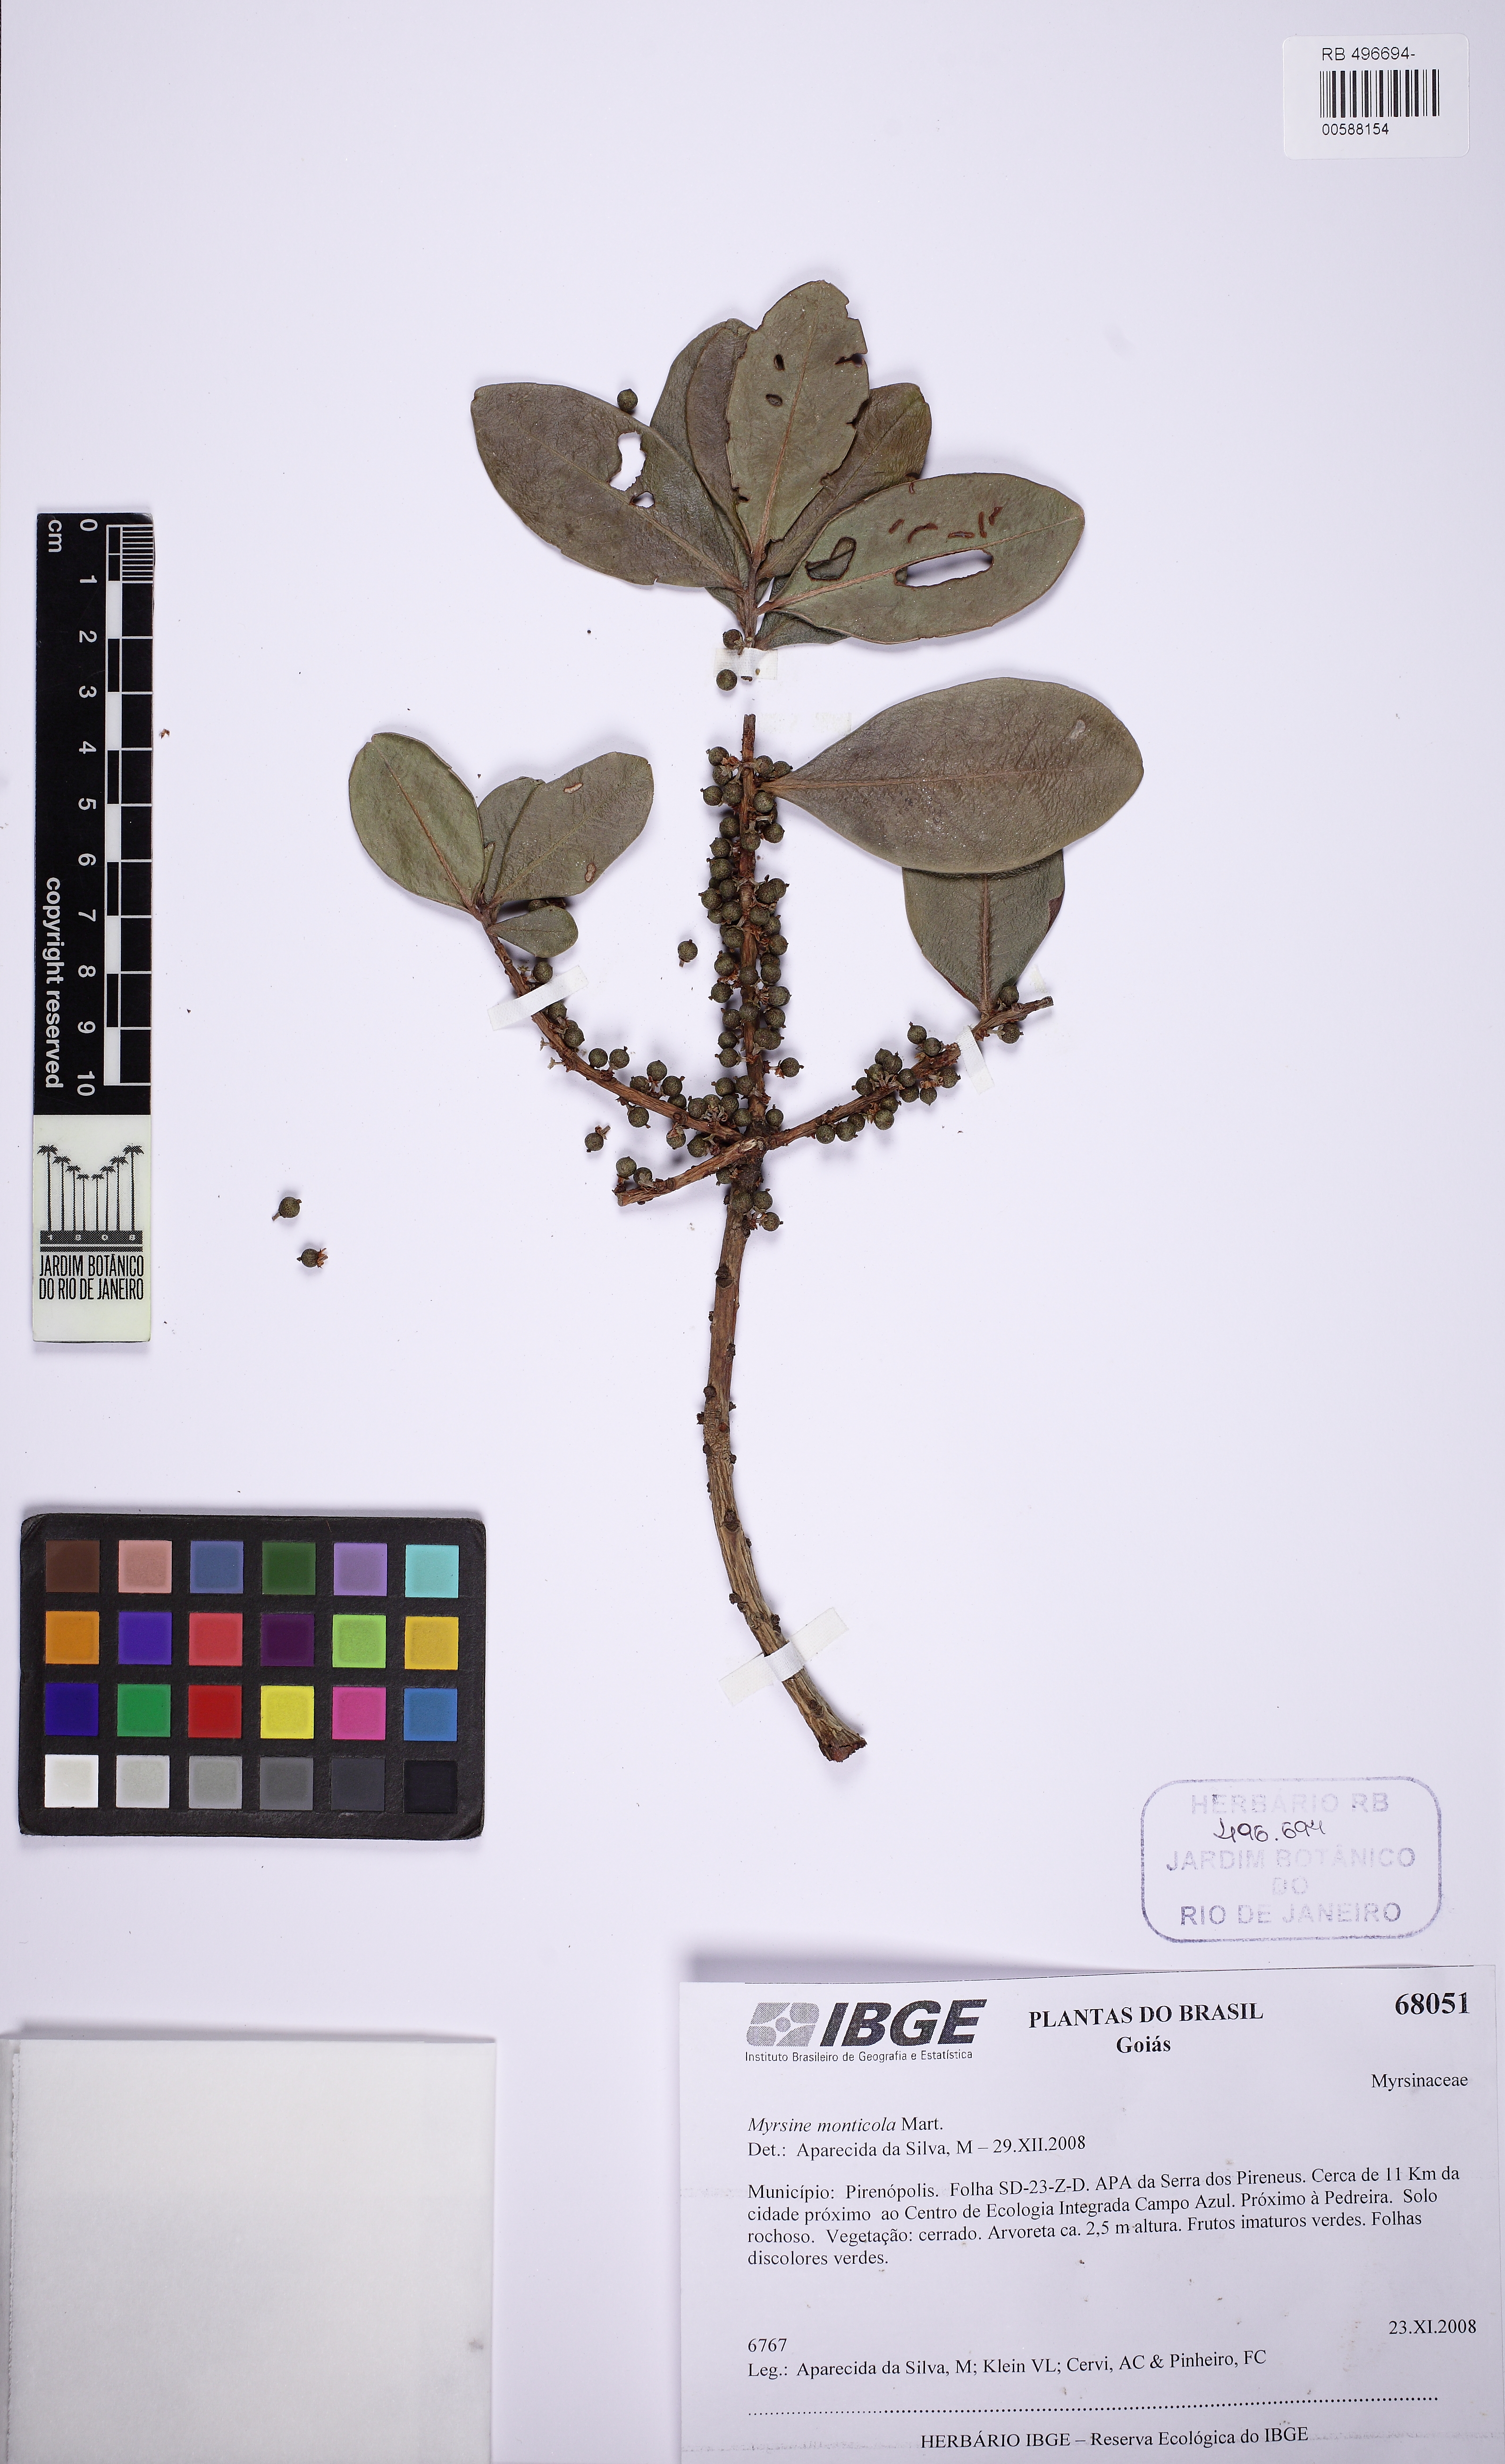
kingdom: Plantae
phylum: Tracheophyta
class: Magnoliopsida
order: Ericales
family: Primulaceae
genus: Myrsine
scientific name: Myrsine monticola
